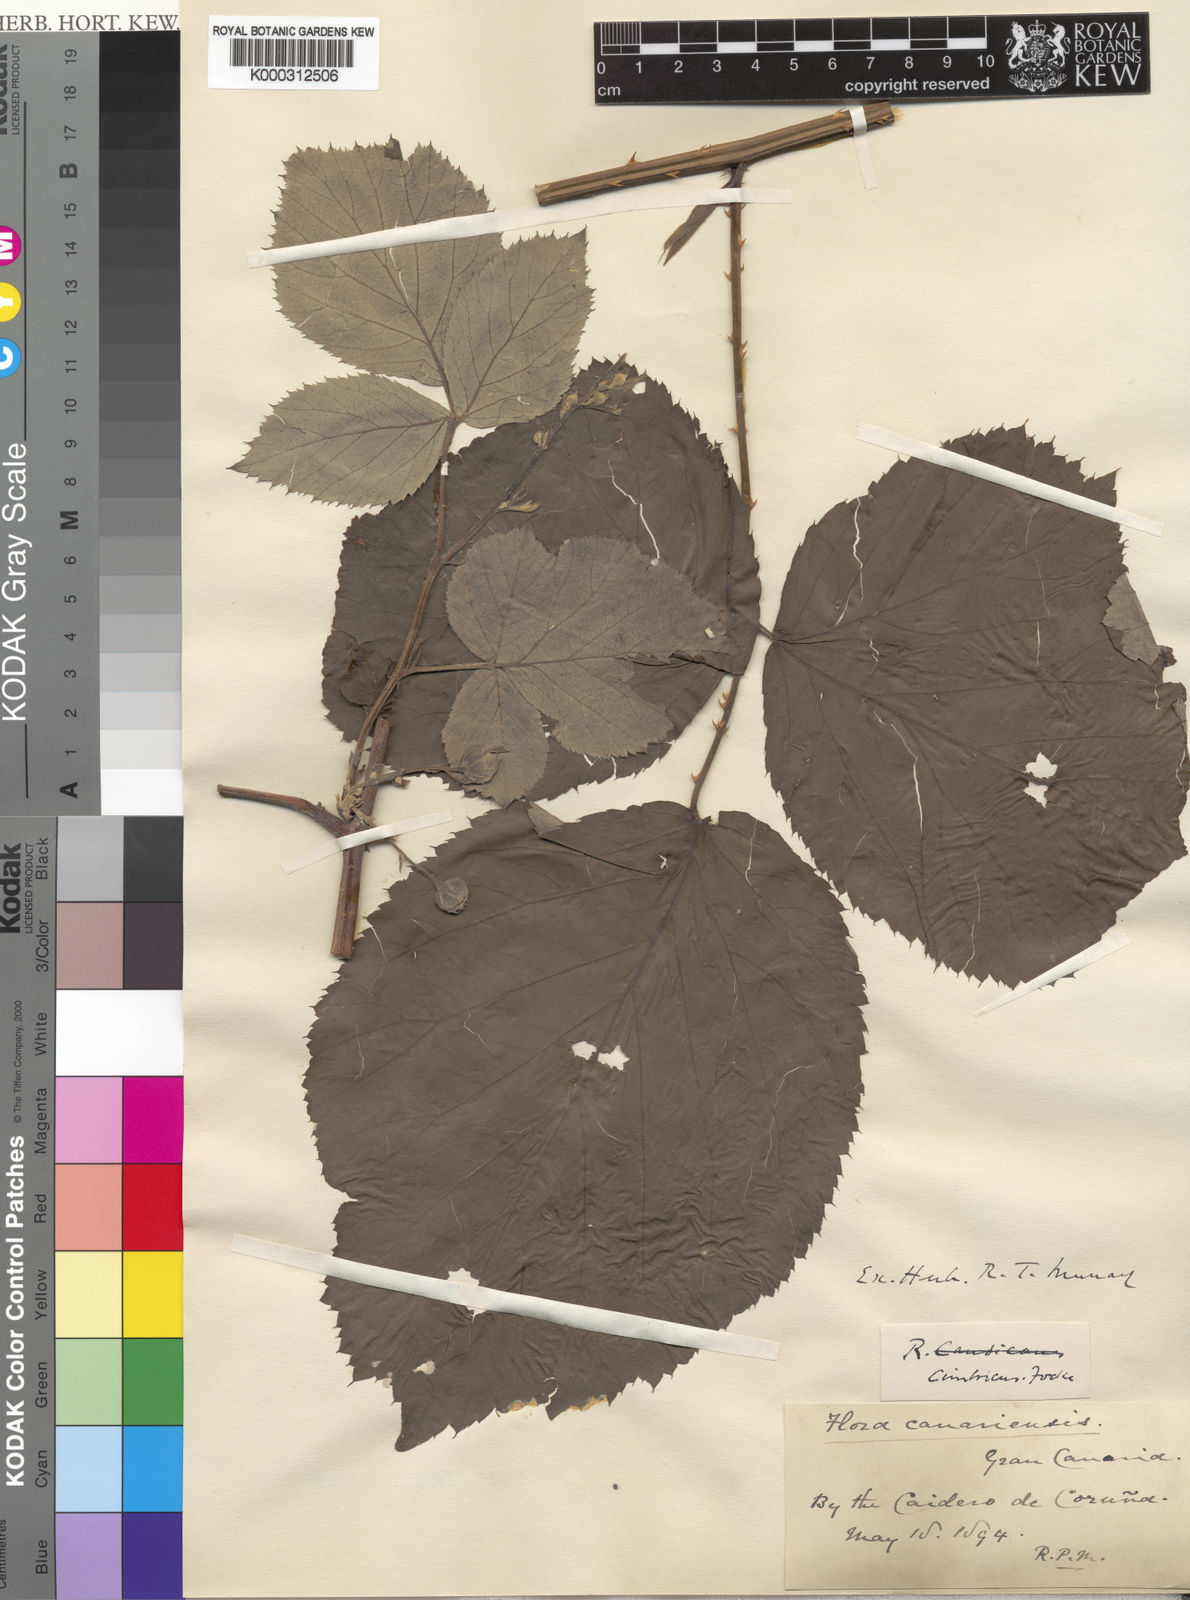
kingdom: Plantae
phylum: Tracheophyta
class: Magnoliopsida
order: Rosales
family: Rosaceae
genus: Rubus
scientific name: Rubus cimbricus
